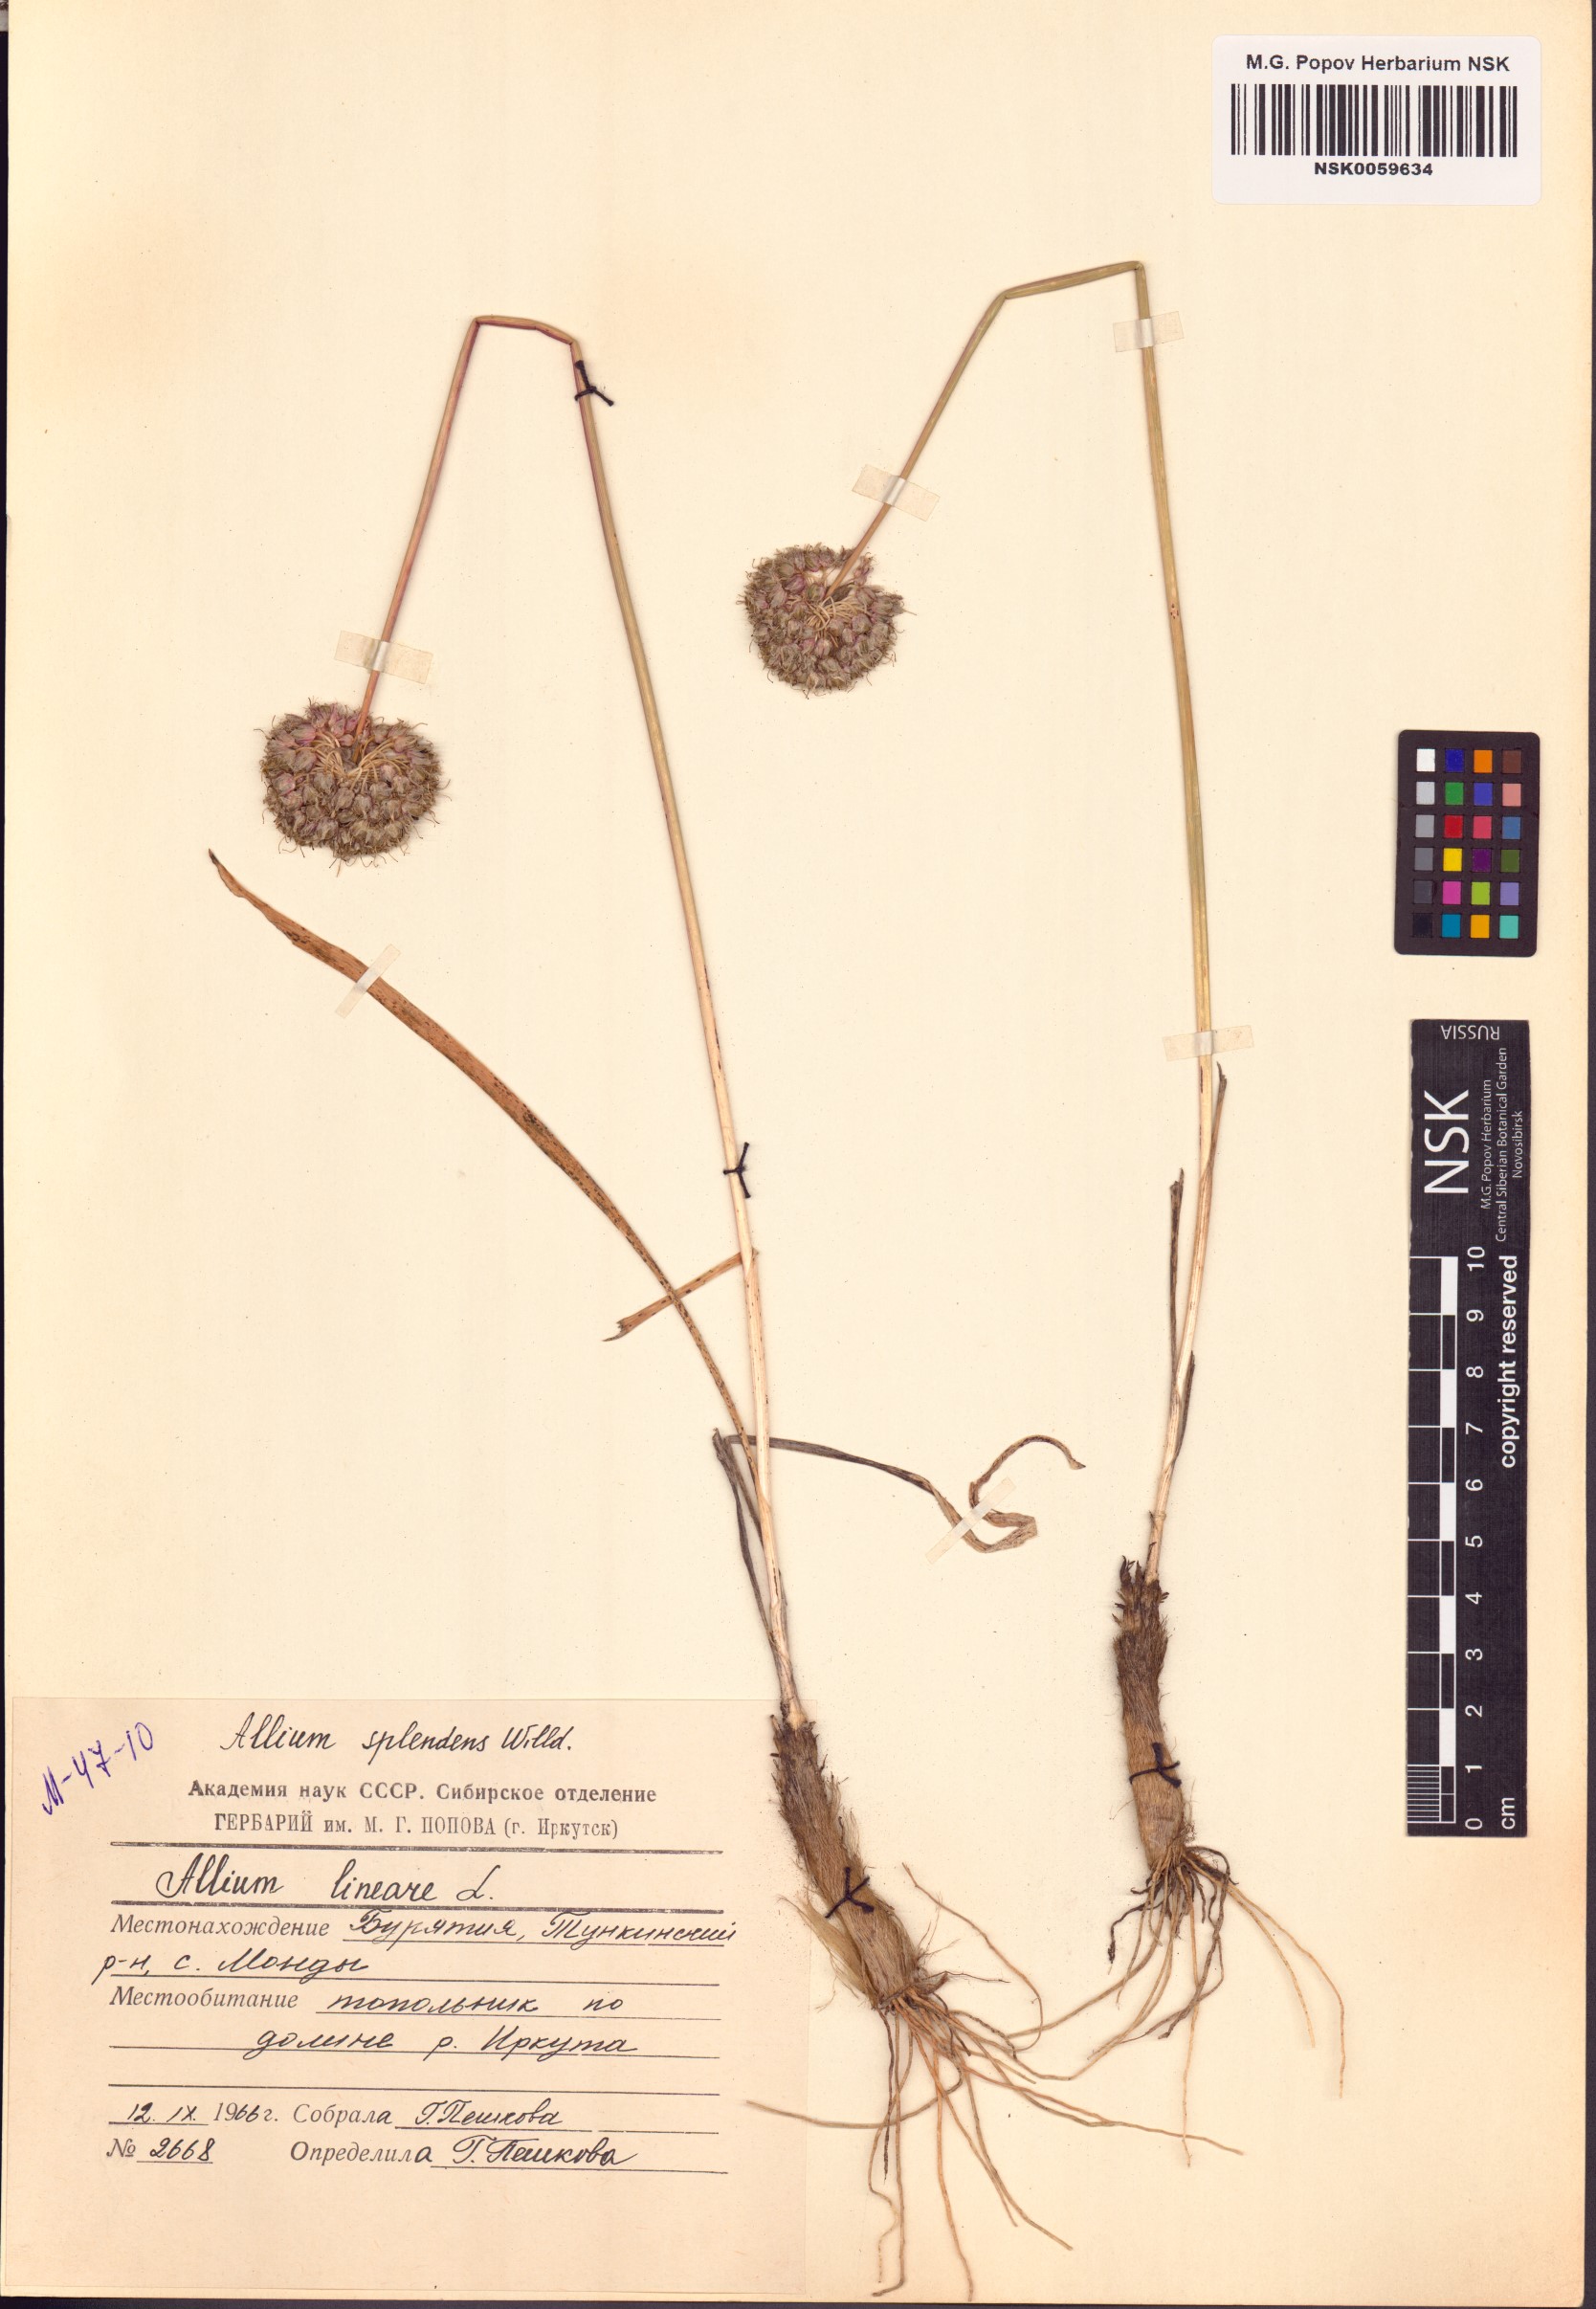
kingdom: Plantae
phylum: Tracheophyta
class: Liliopsida
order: Asparagales
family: Amaryllidaceae
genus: Allium
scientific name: Allium splendens
